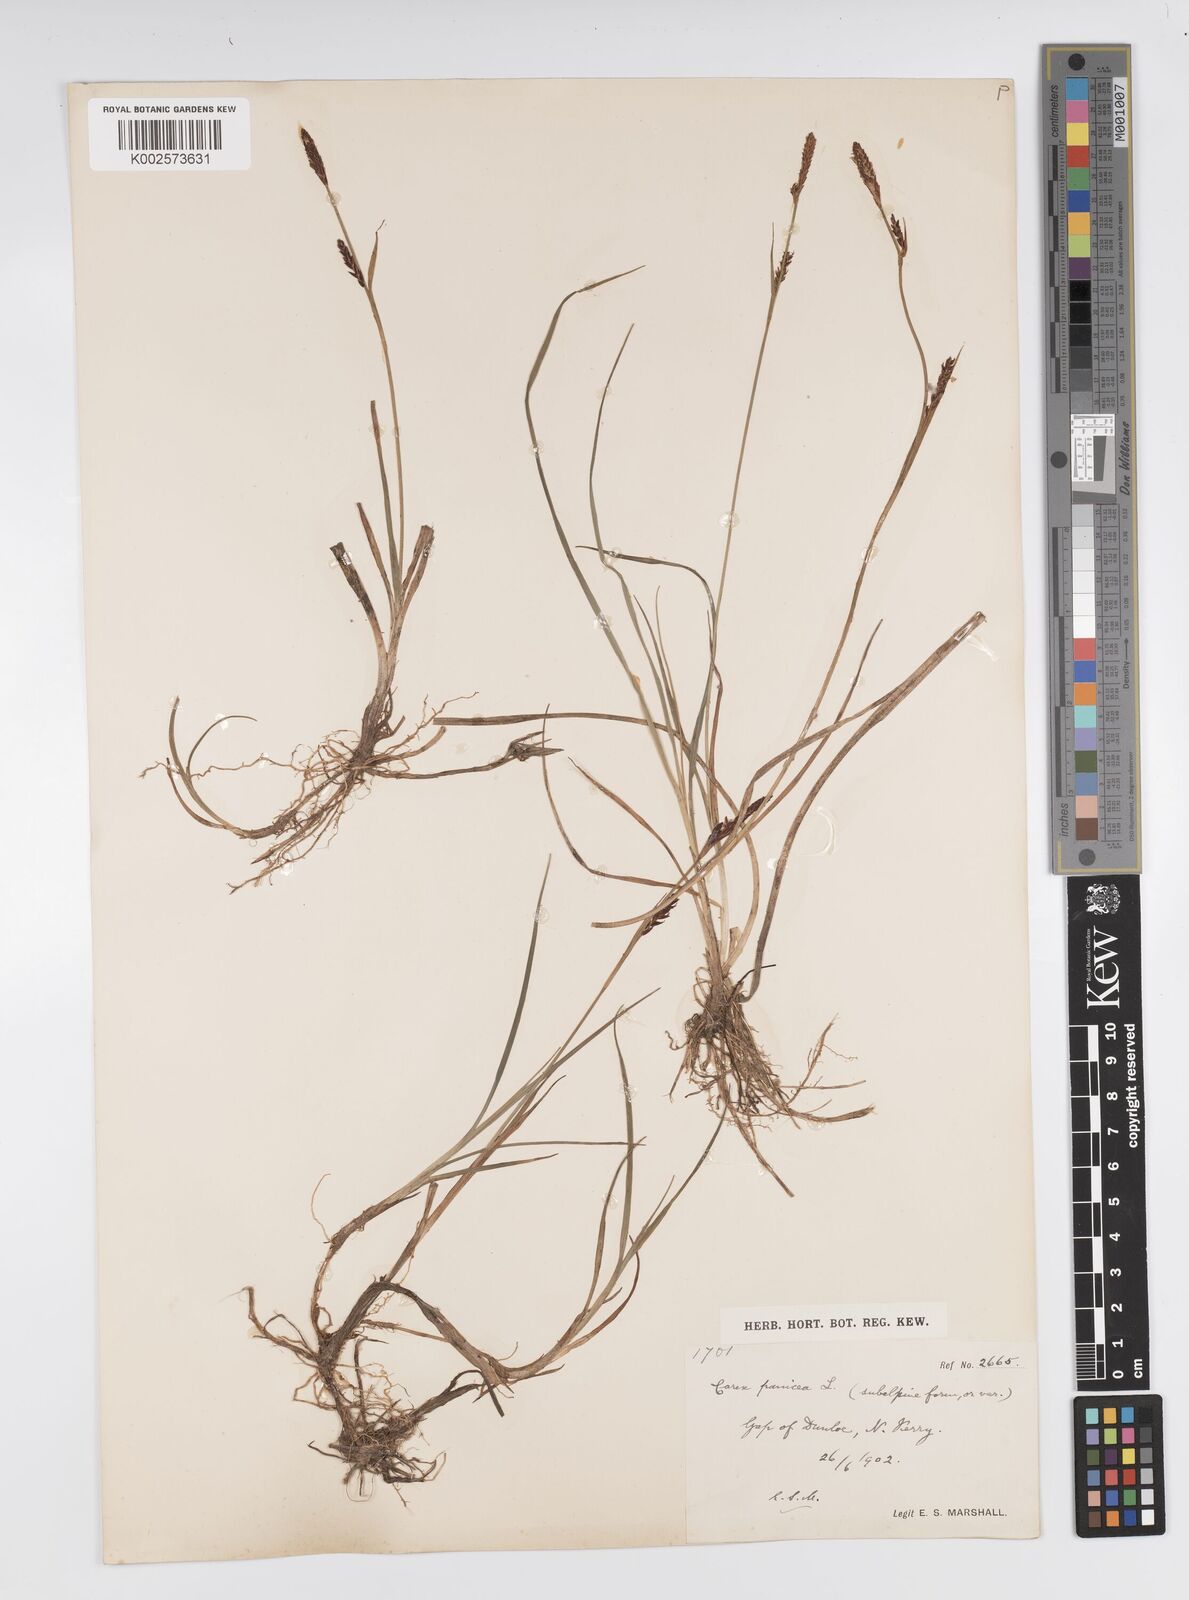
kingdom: Plantae
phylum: Tracheophyta
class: Liliopsida
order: Poales
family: Cyperaceae
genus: Carex
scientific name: Carex panicea
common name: Carnation sedge
